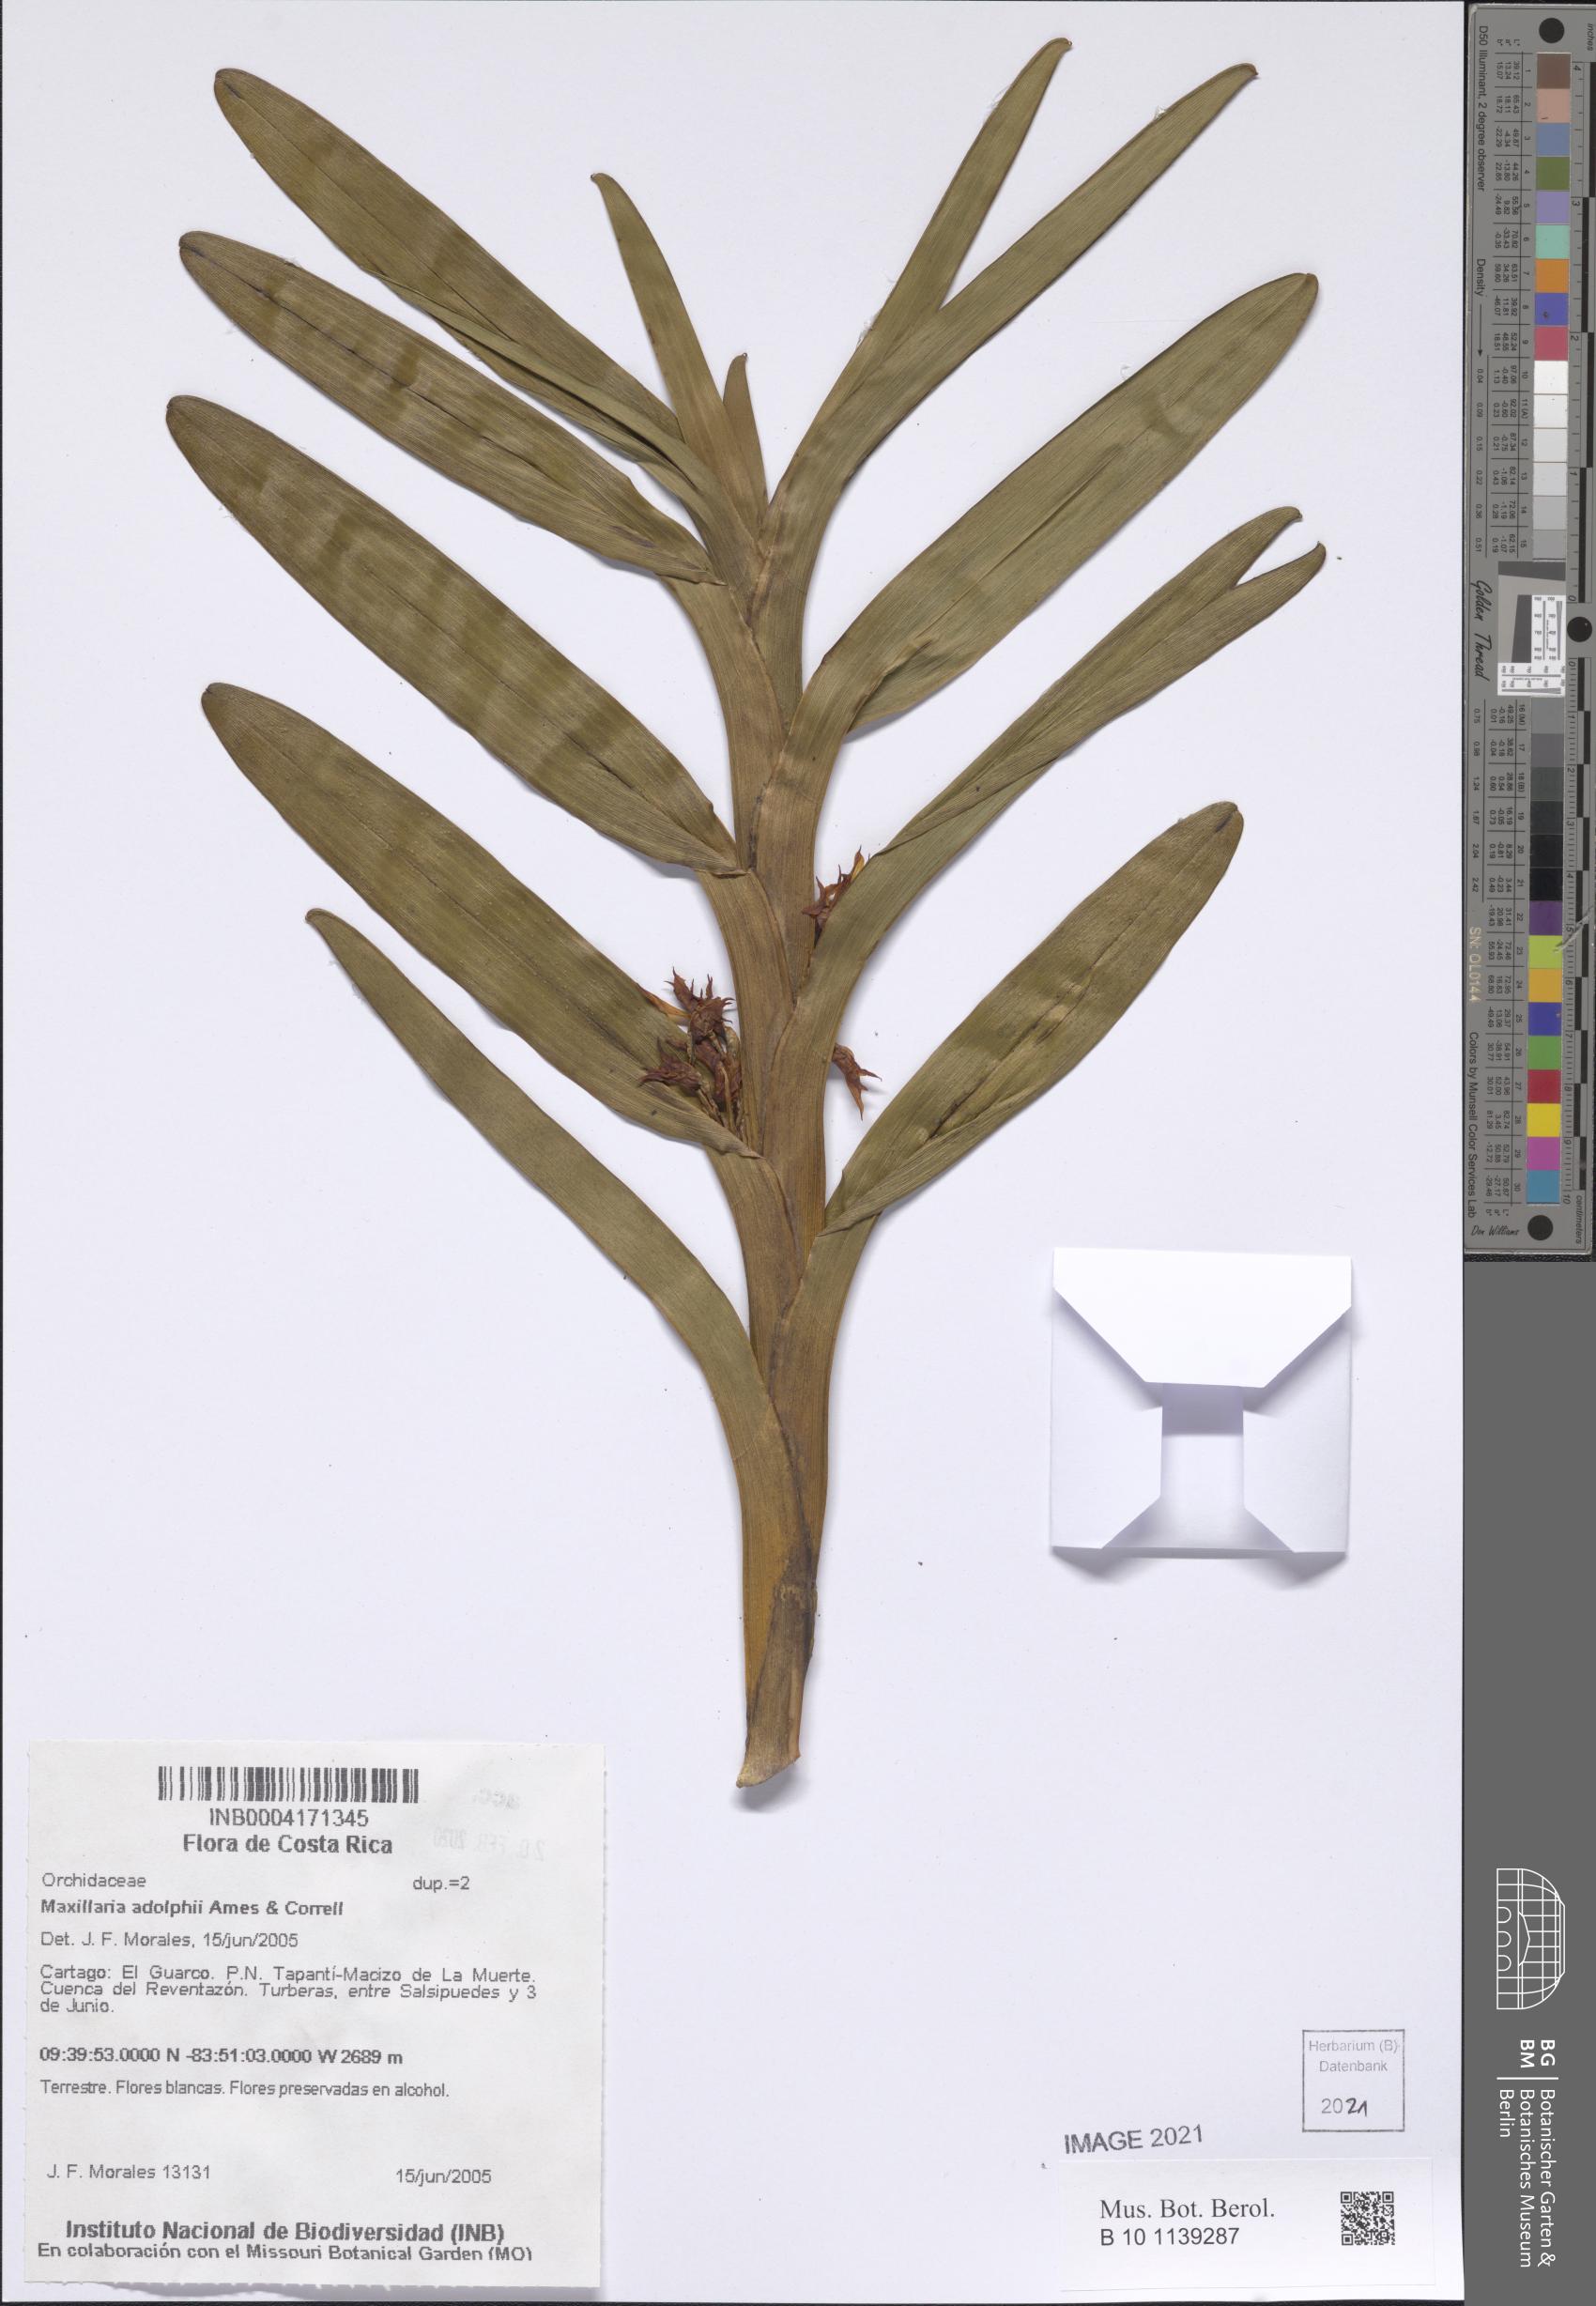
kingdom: Plantae
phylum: Tracheophyta
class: Liliopsida
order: Asparagales
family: Orchidaceae
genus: Maxillaria
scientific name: Maxillaria adolphi
